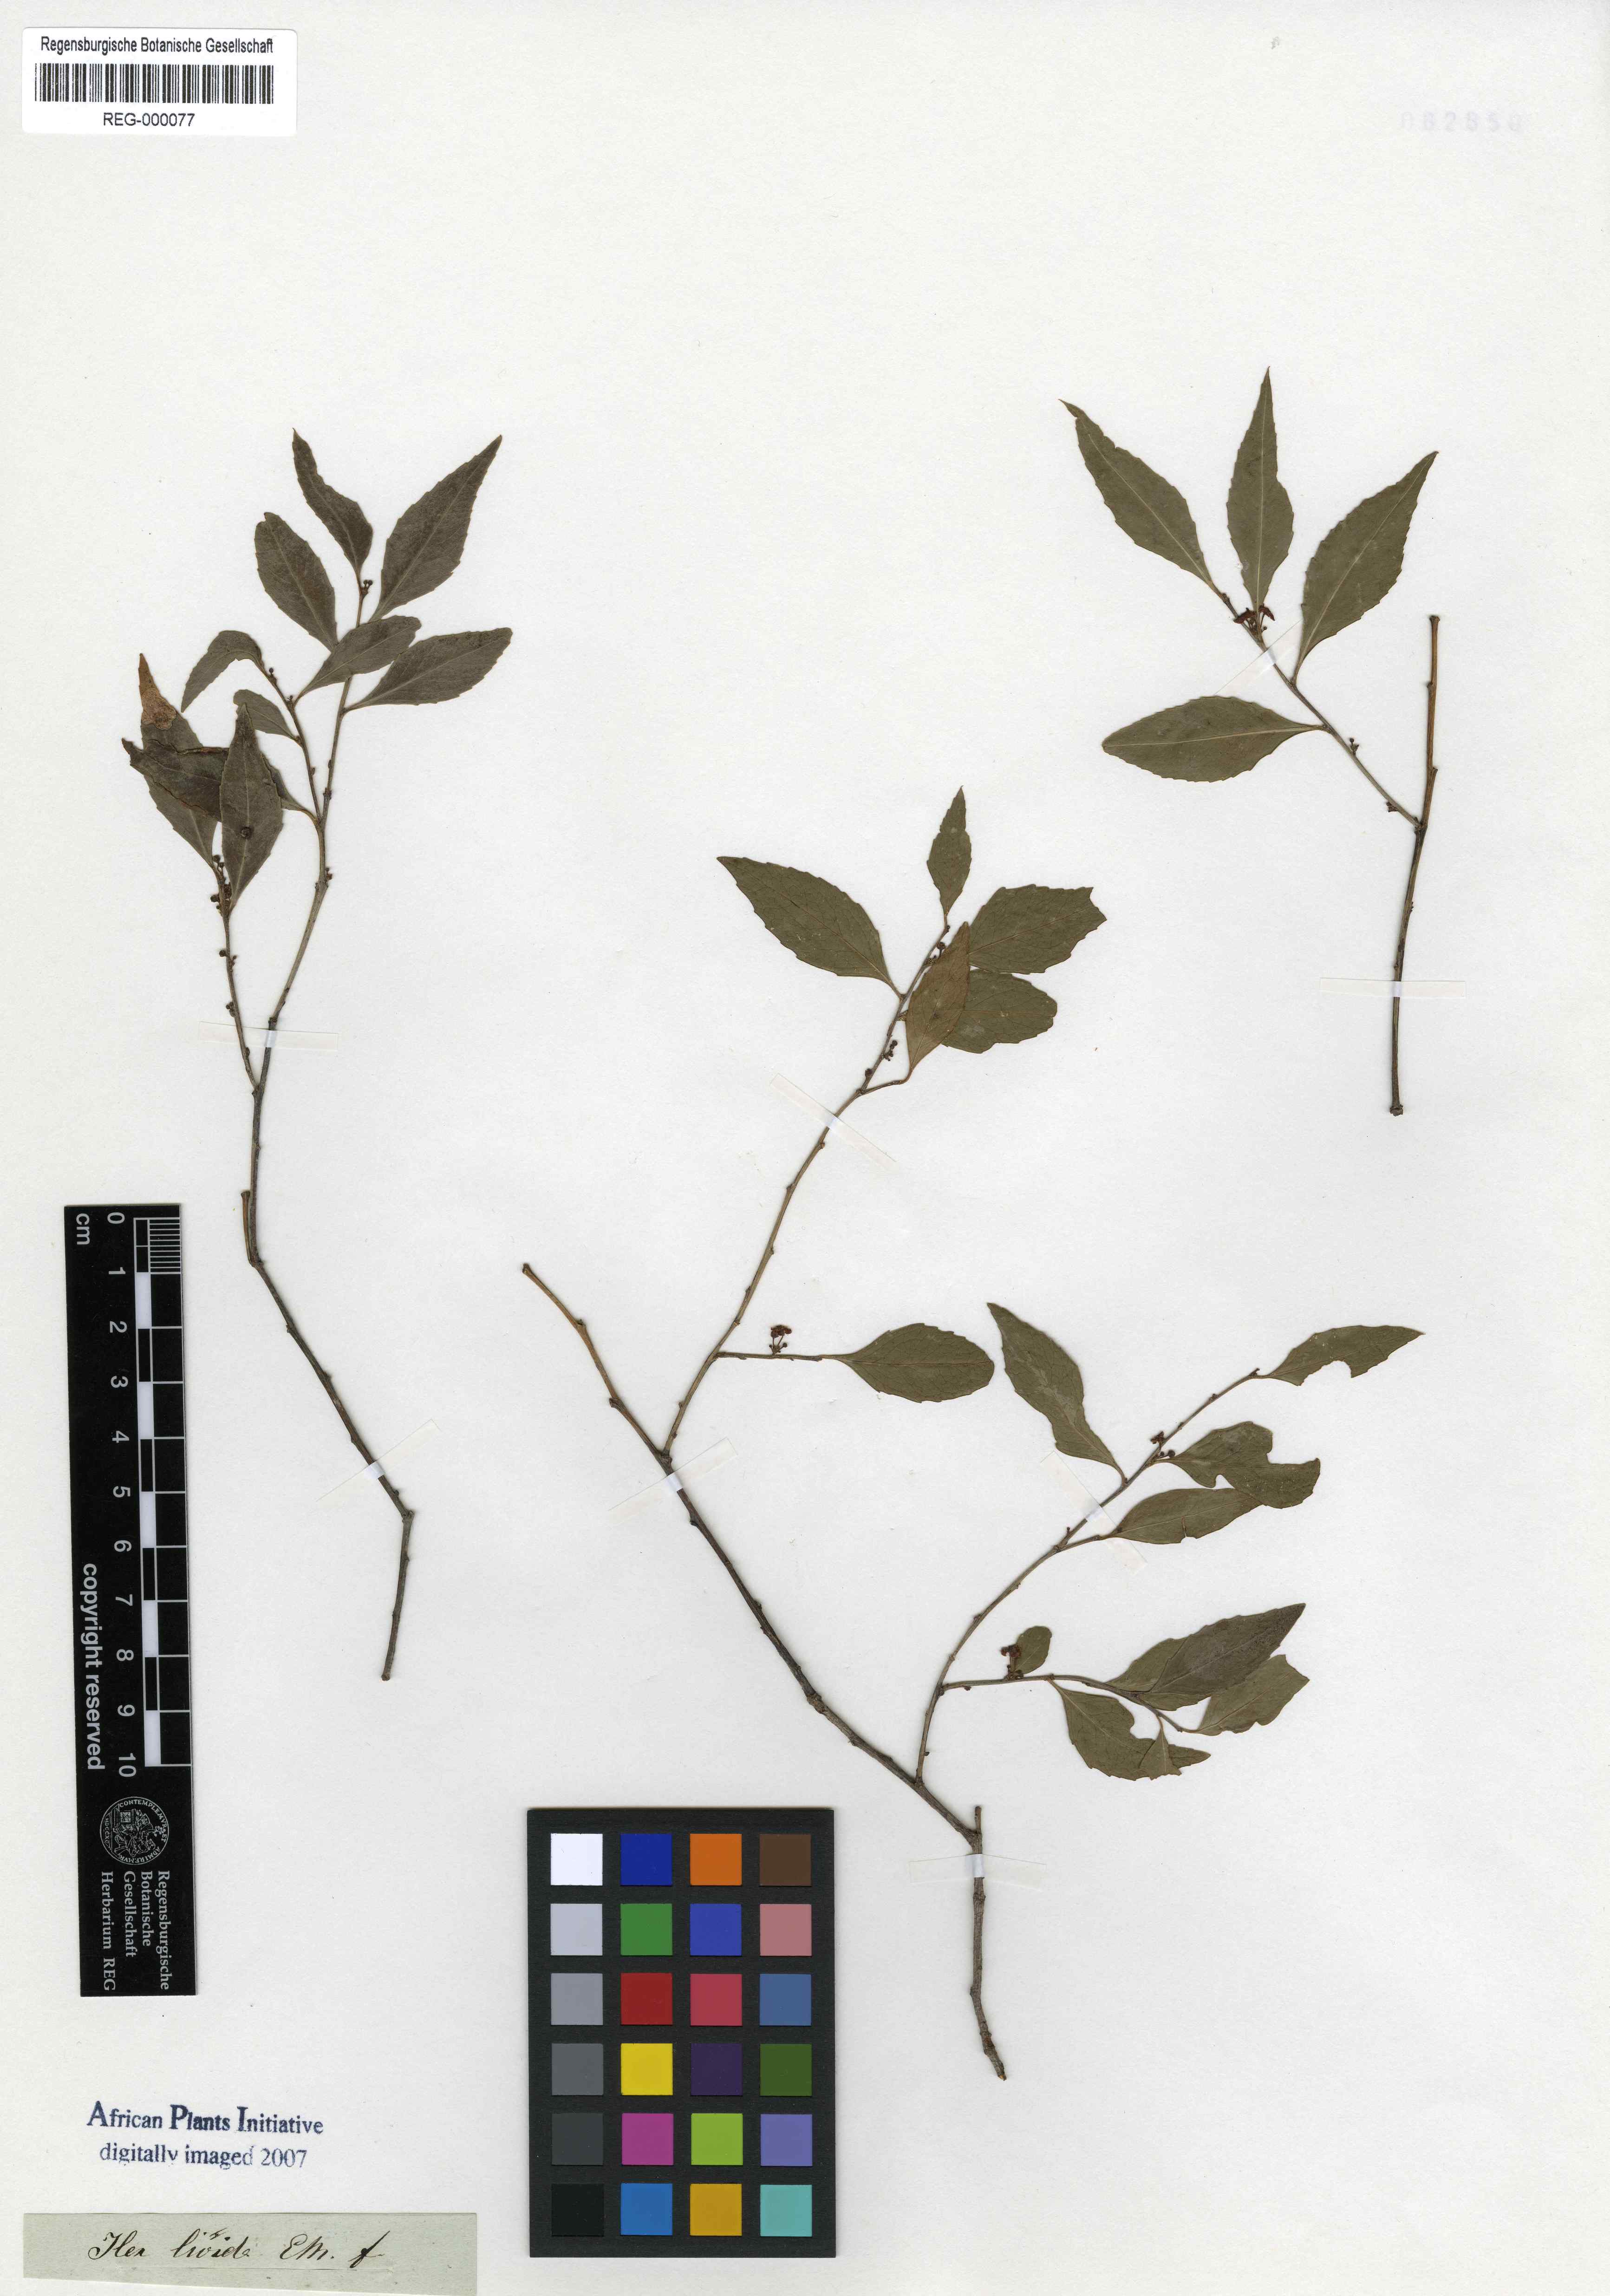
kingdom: Plantae
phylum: Tracheophyta
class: Magnoliopsida
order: Celastrales
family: Celastraceae
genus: Gymnosporia
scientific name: Gymnosporia acuminata
